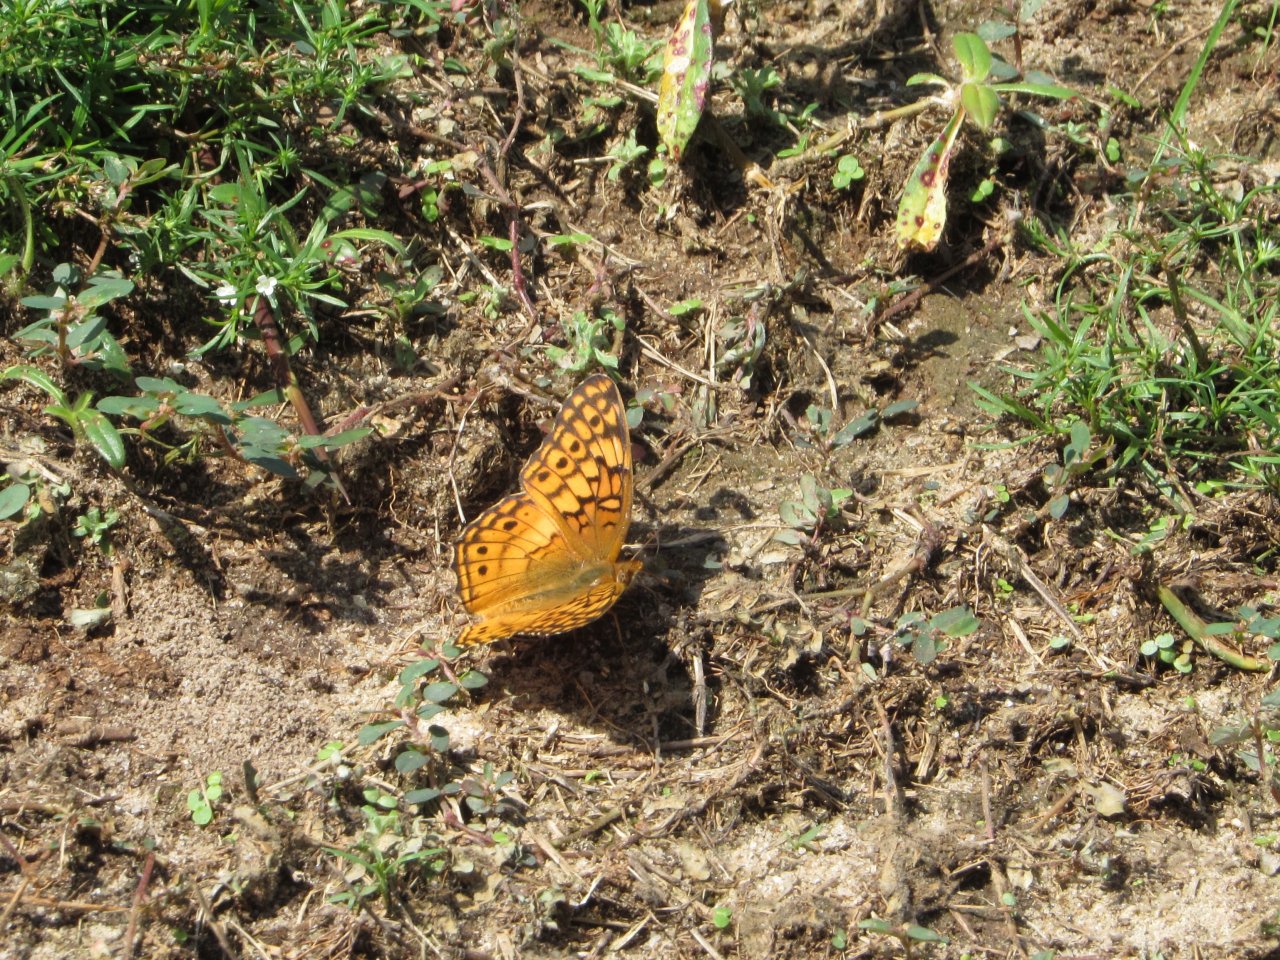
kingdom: Animalia
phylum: Arthropoda
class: Insecta
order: Lepidoptera
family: Nymphalidae
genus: Euptoieta
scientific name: Euptoieta claudia
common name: Variegated Fritillary
